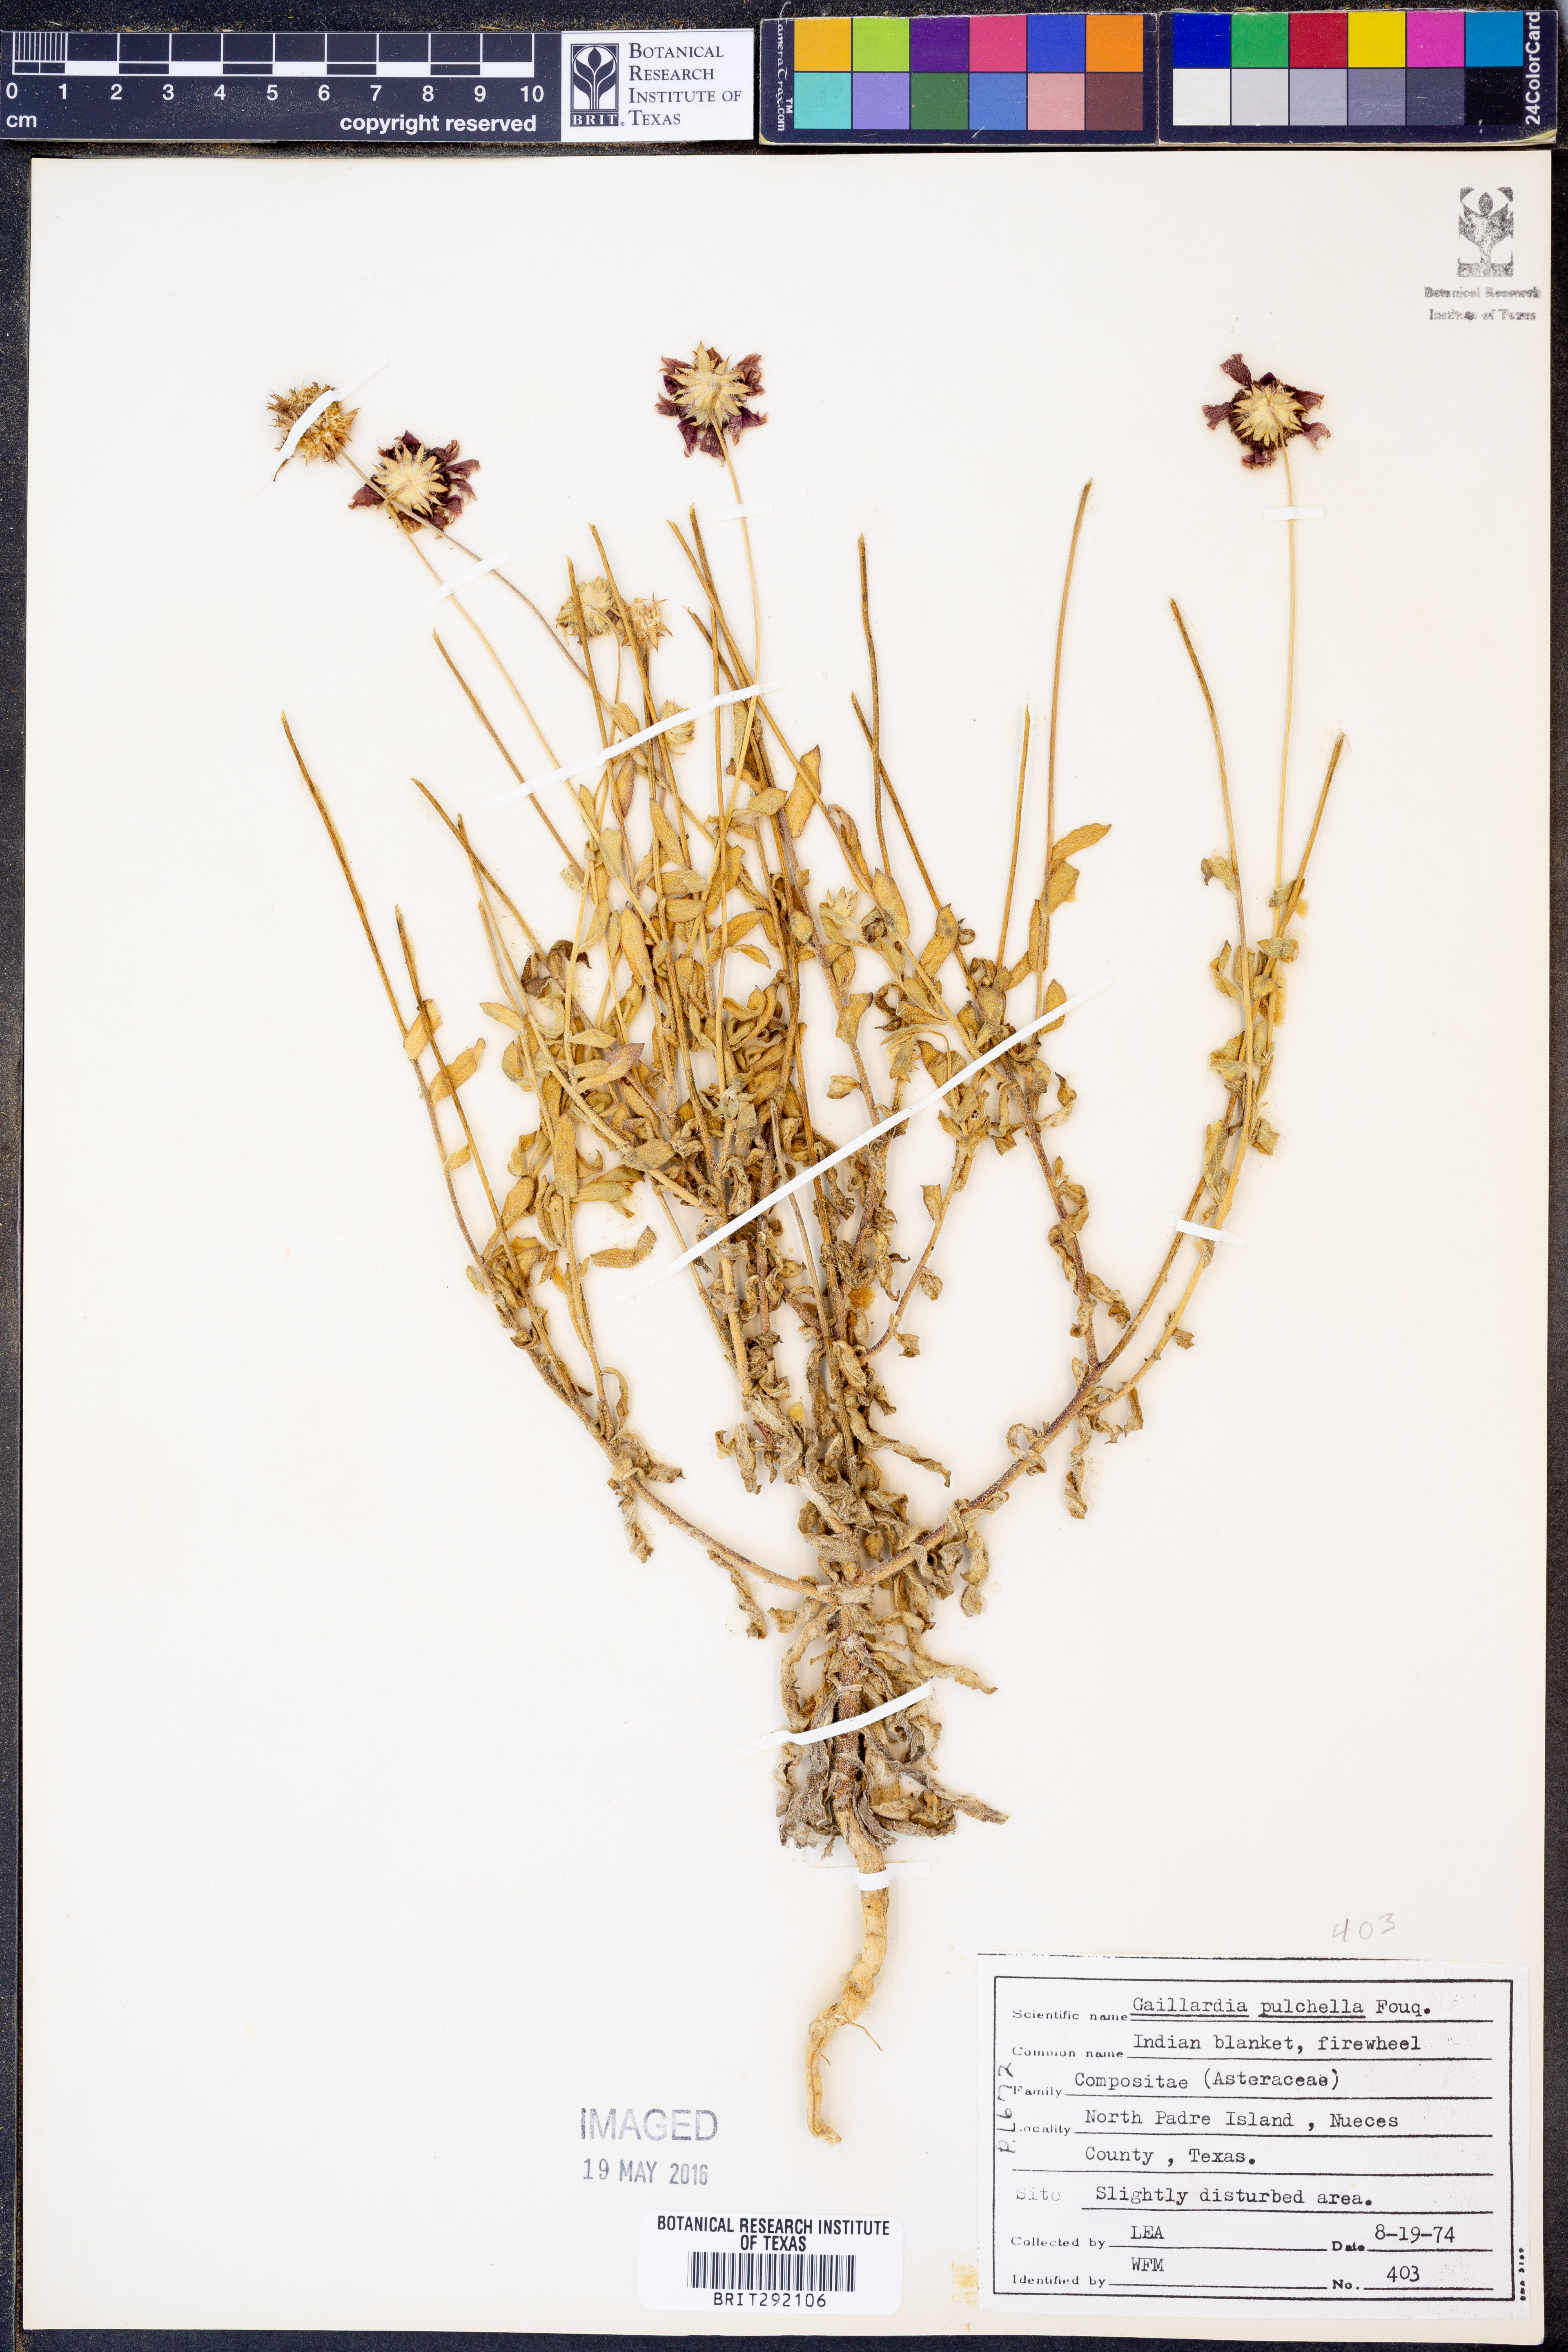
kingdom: Plantae
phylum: Tracheophyta
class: Magnoliopsida
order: Asterales
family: Asteraceae
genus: Gaillardia
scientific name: Gaillardia pulchella
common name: Firewheel
